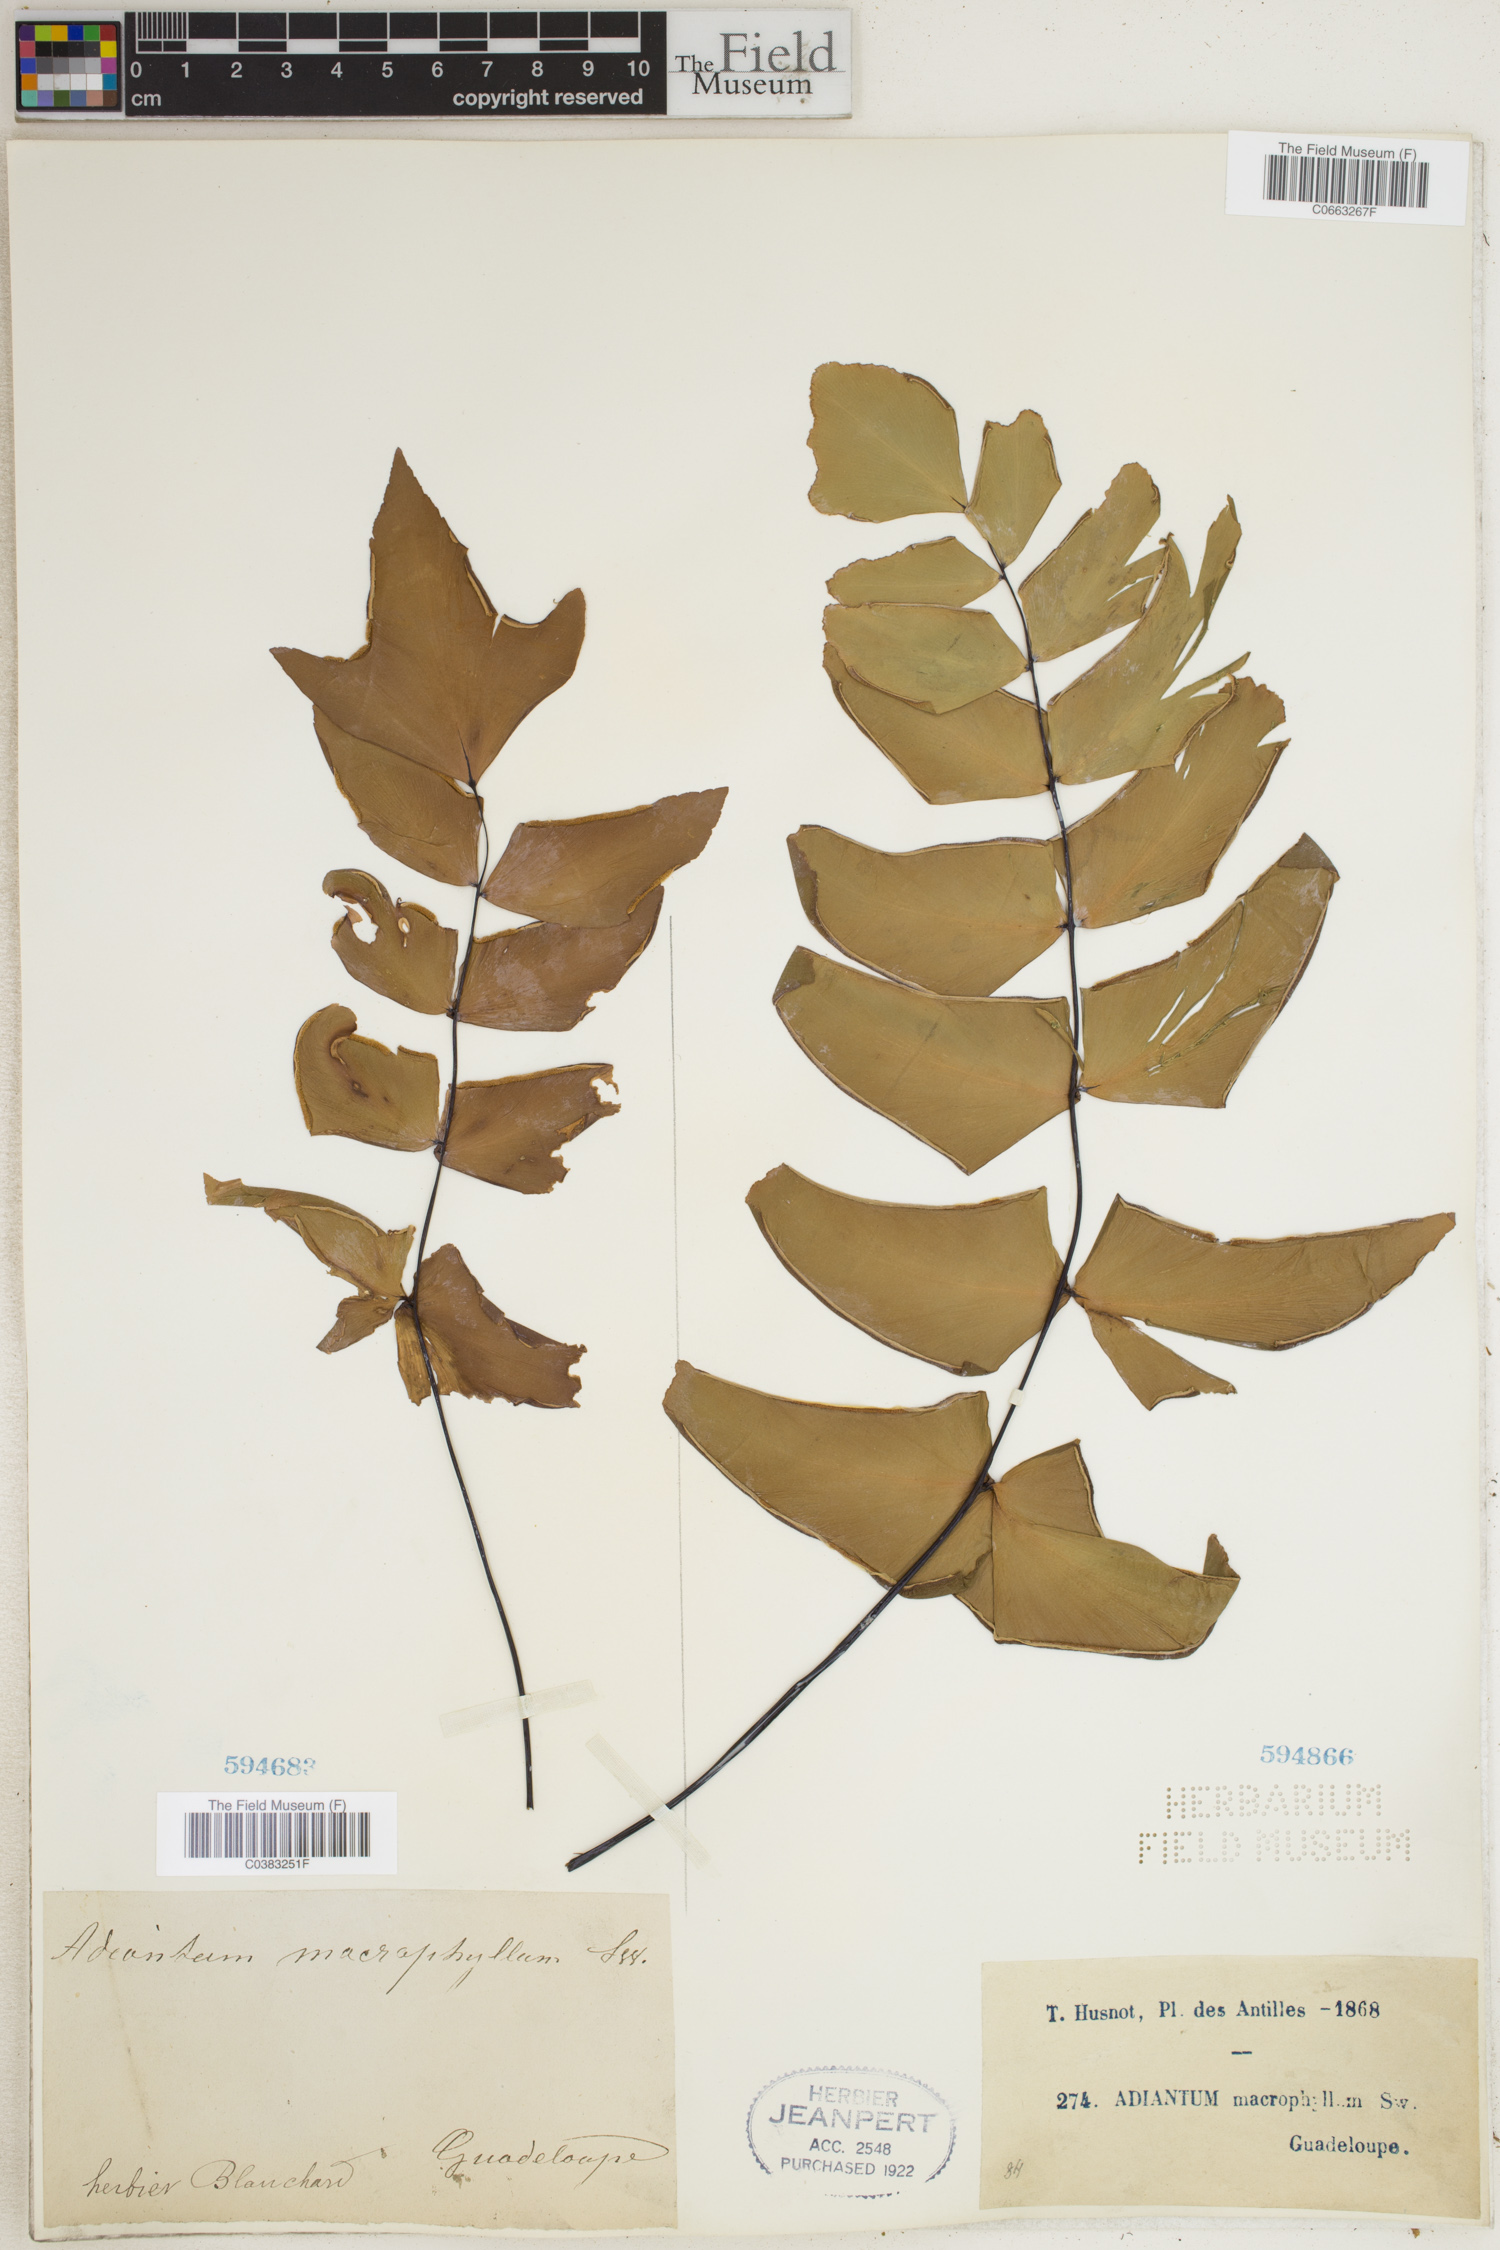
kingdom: Plantae
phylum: Tracheophyta
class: Polypodiopsida
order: Polypodiales
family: Pteridaceae
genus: Adiantum
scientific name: Adiantum macrophyllum
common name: Largeleaf maidenhair
